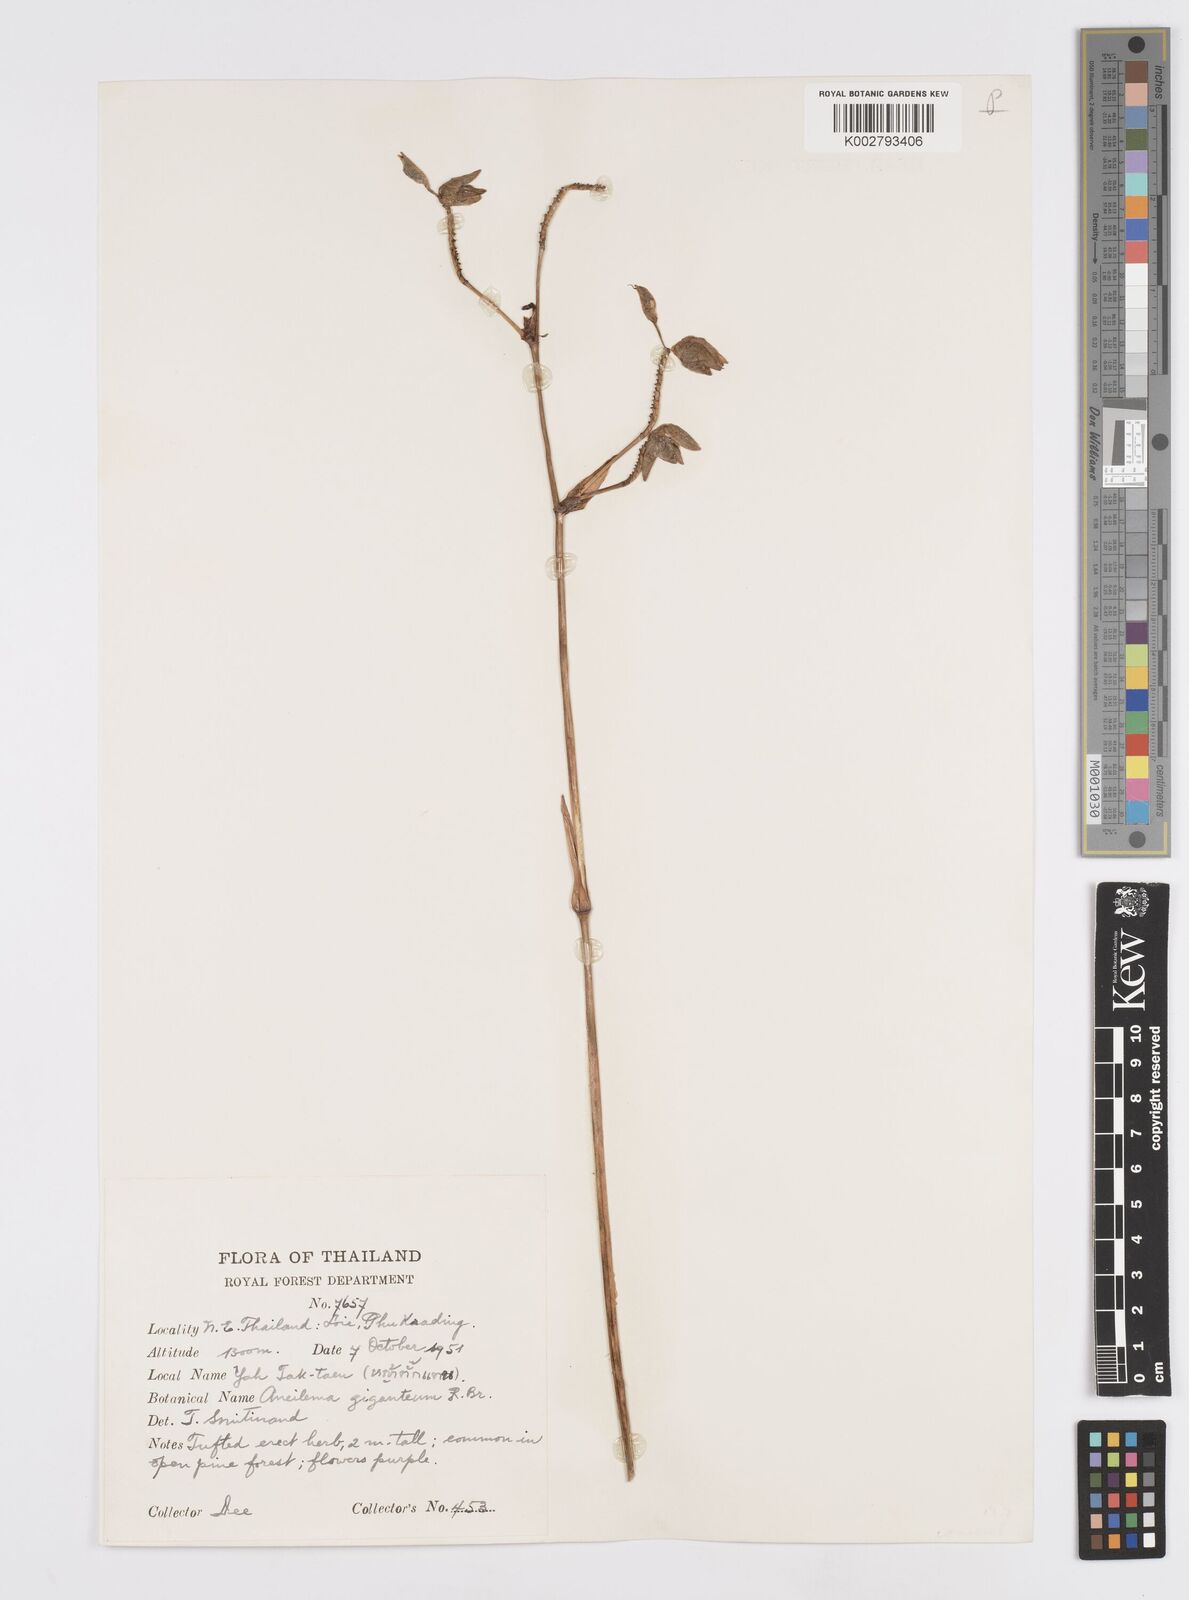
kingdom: Plantae
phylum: Tracheophyta
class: Liliopsida
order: Commelinales
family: Commelinaceae
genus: Murdannia
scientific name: Murdannia gigantea
